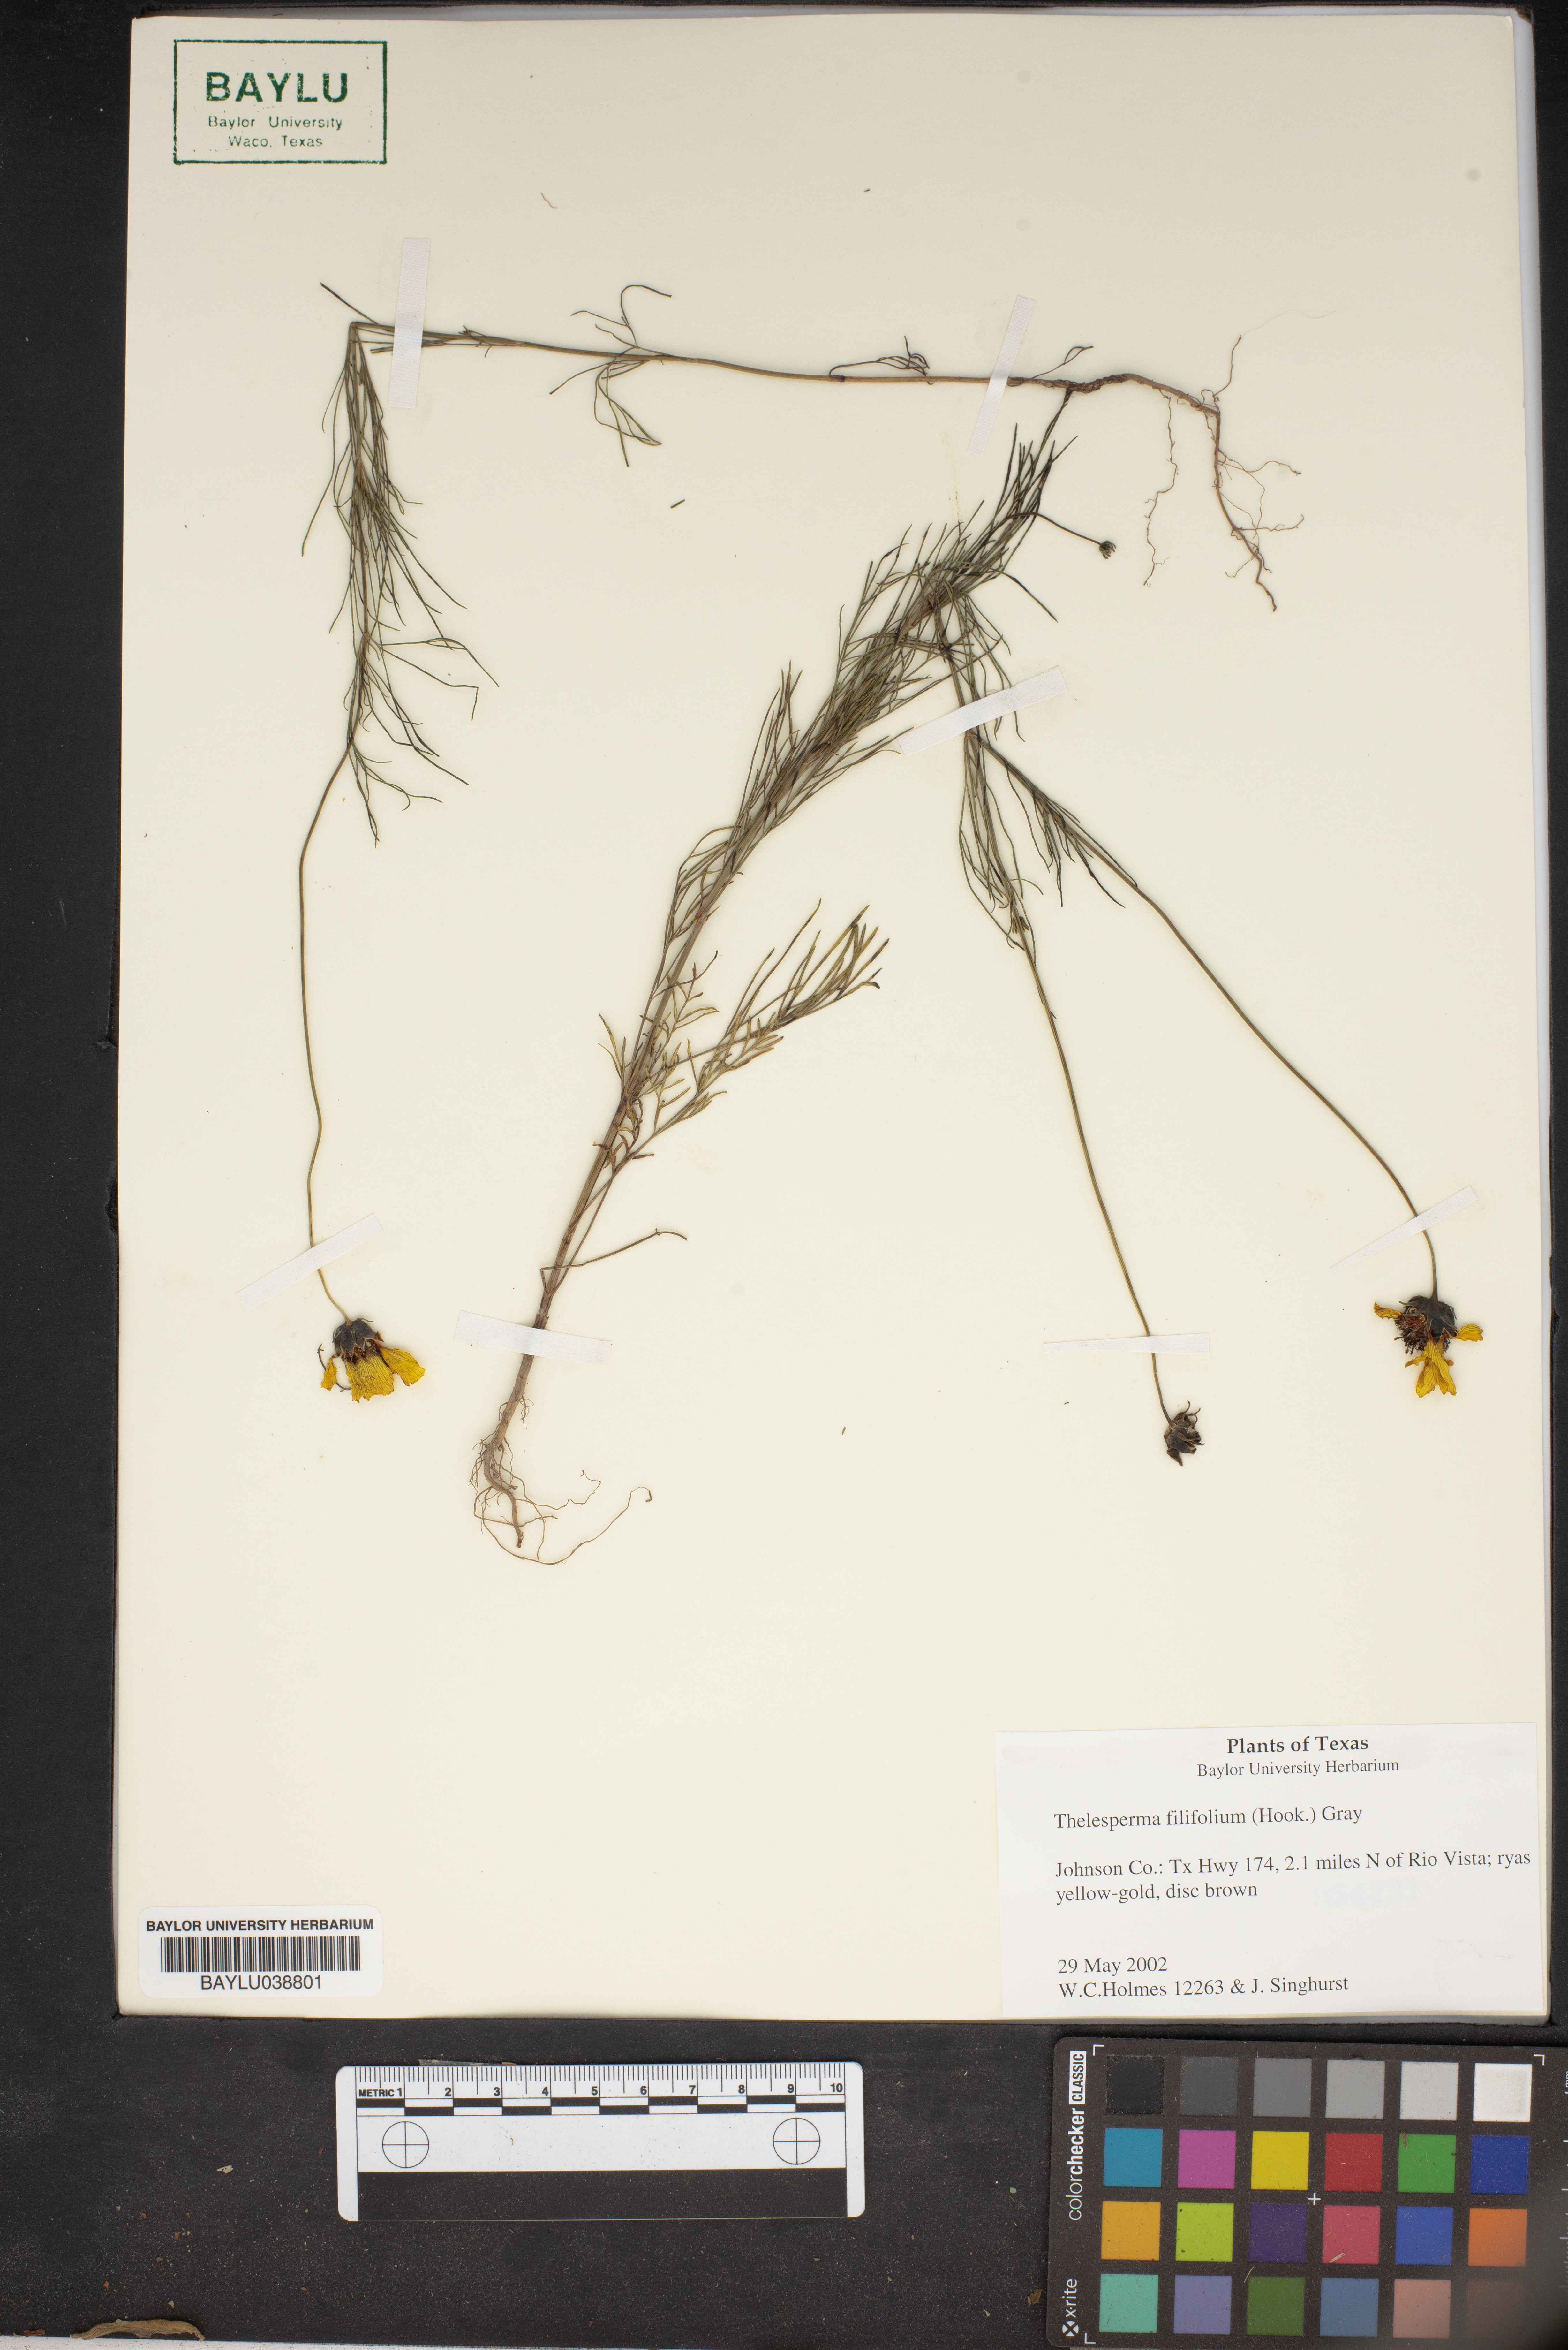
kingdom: Plantae
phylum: Tracheophyta
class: Magnoliopsida
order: Asterales
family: Asteraceae
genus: Thelesperma
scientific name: Thelesperma filifolium
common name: Stiff greenthread
